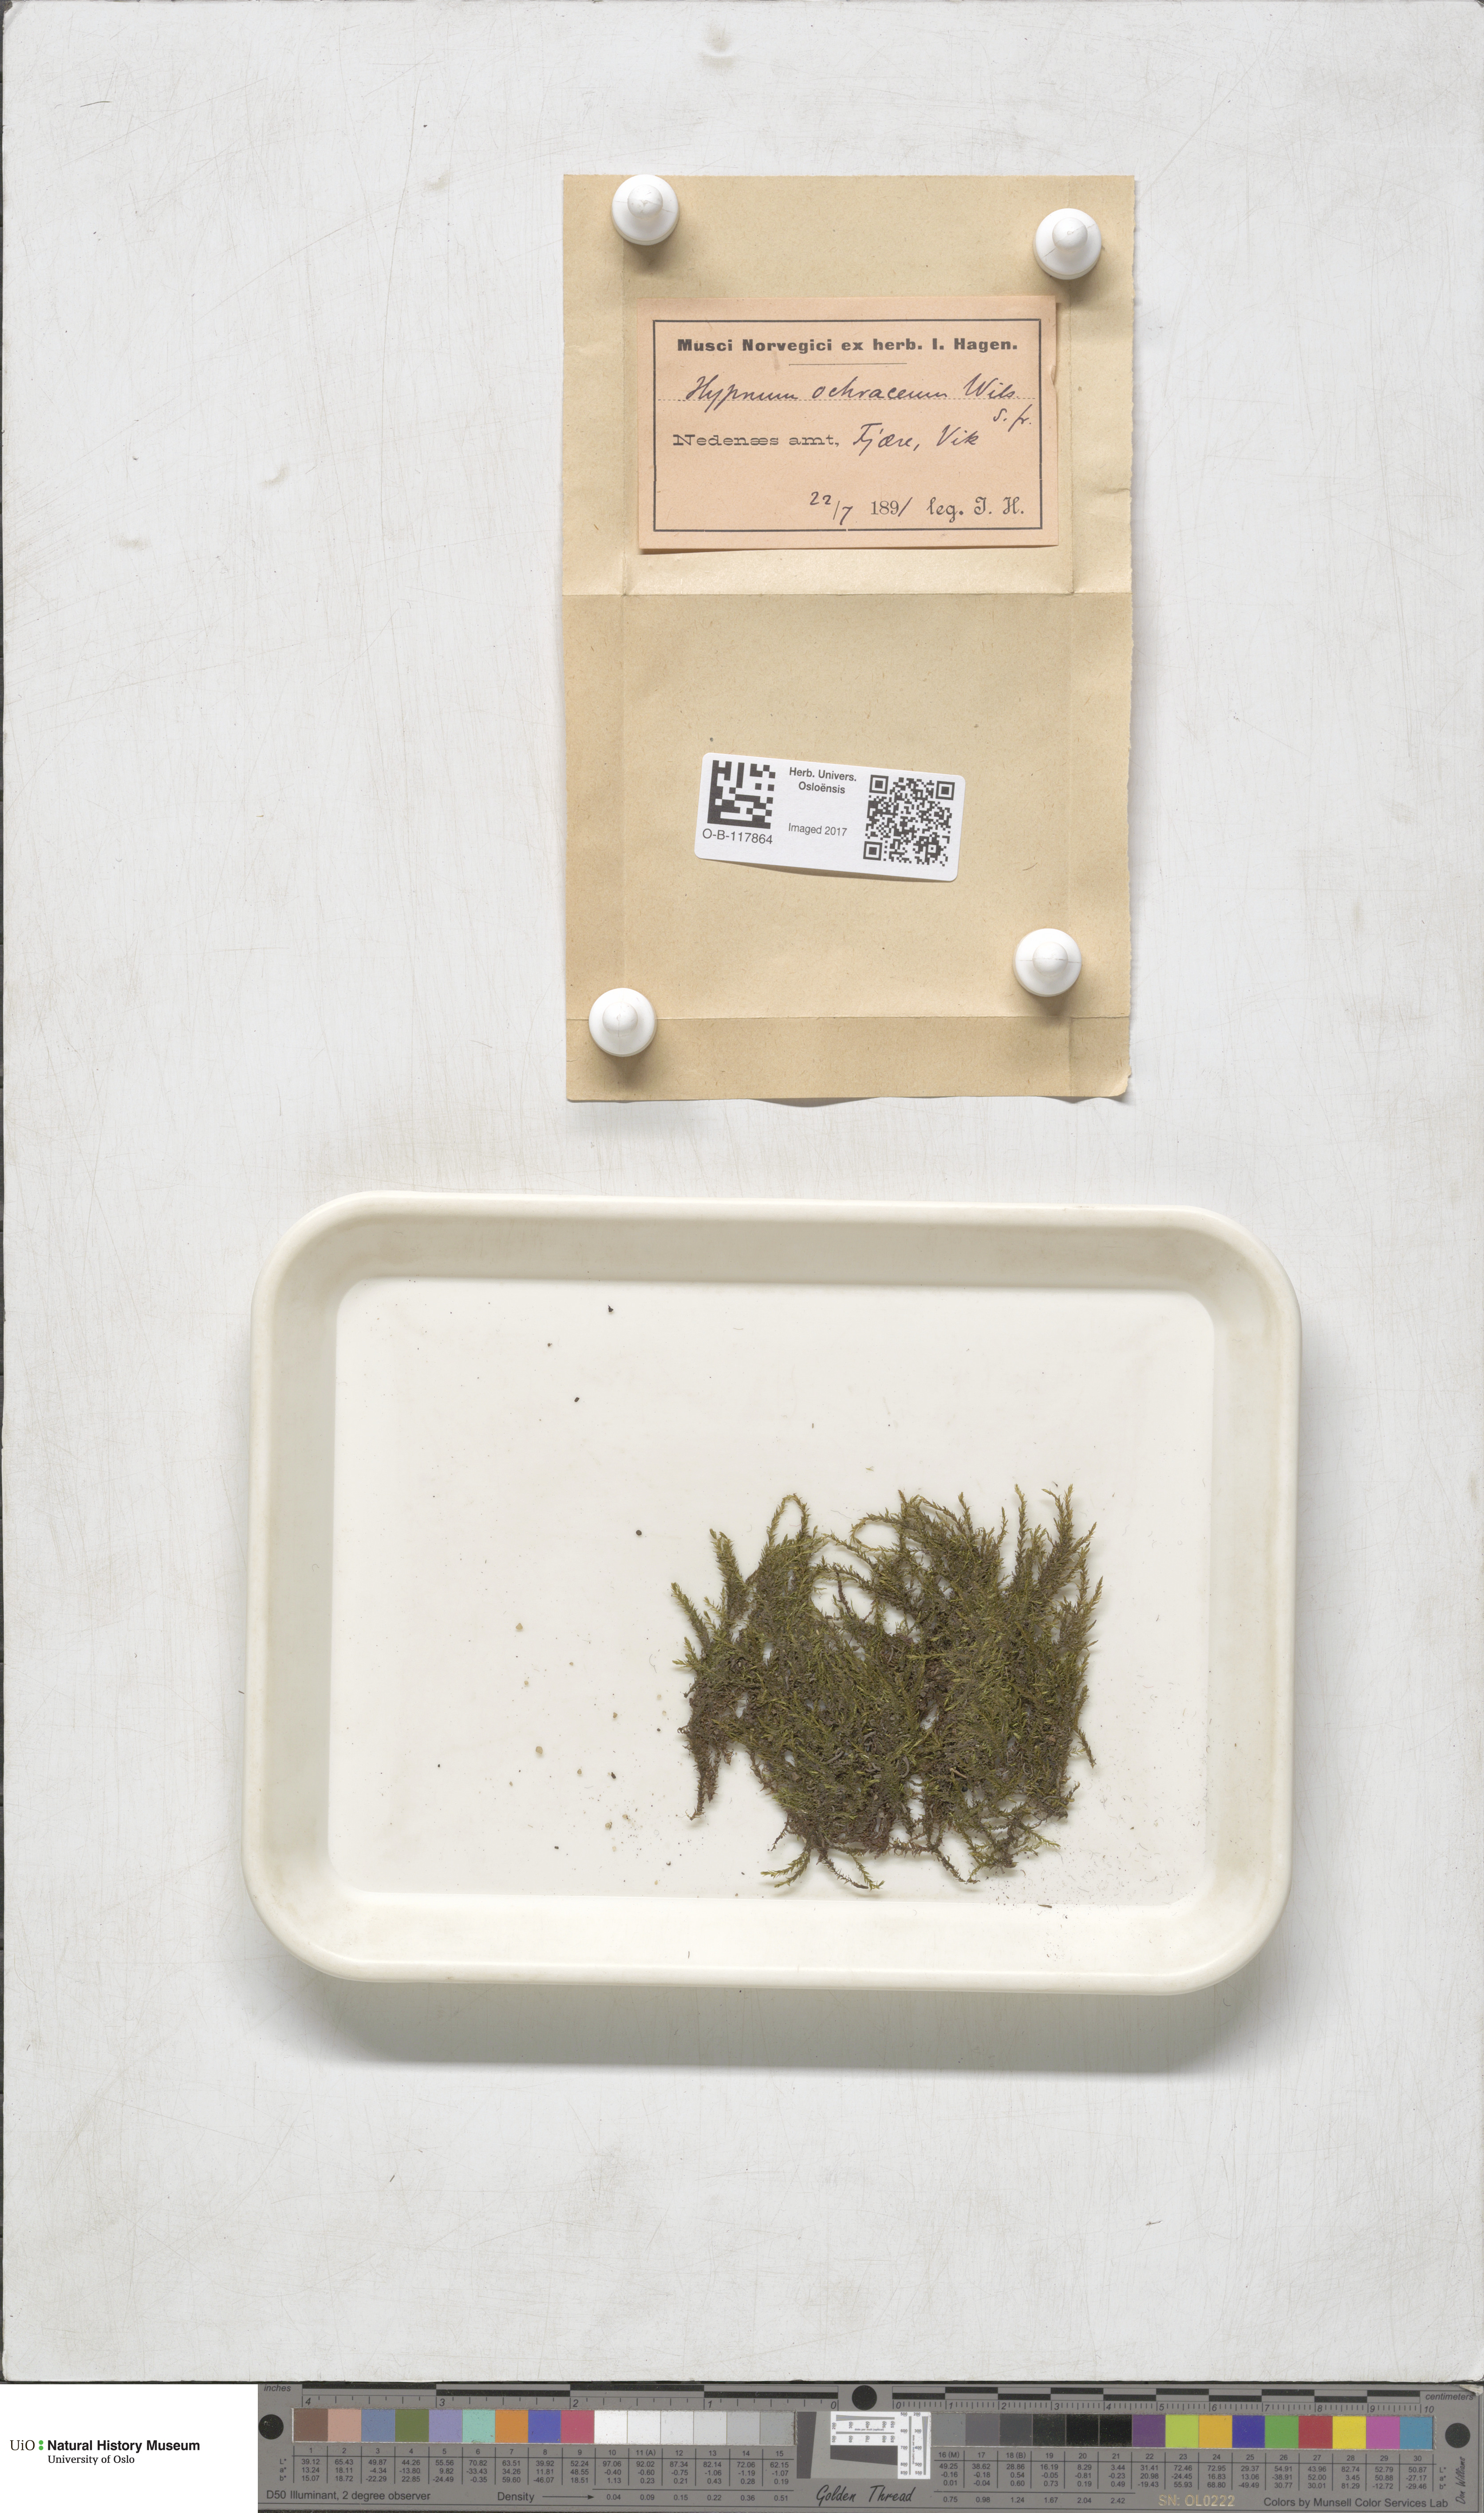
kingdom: Plantae
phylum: Bryophyta
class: Bryopsida
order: Hypnales
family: Scorpidiaceae
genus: Hygrohypnella
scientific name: Hygrohypnella ochracea
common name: Hygrohypnum moss
